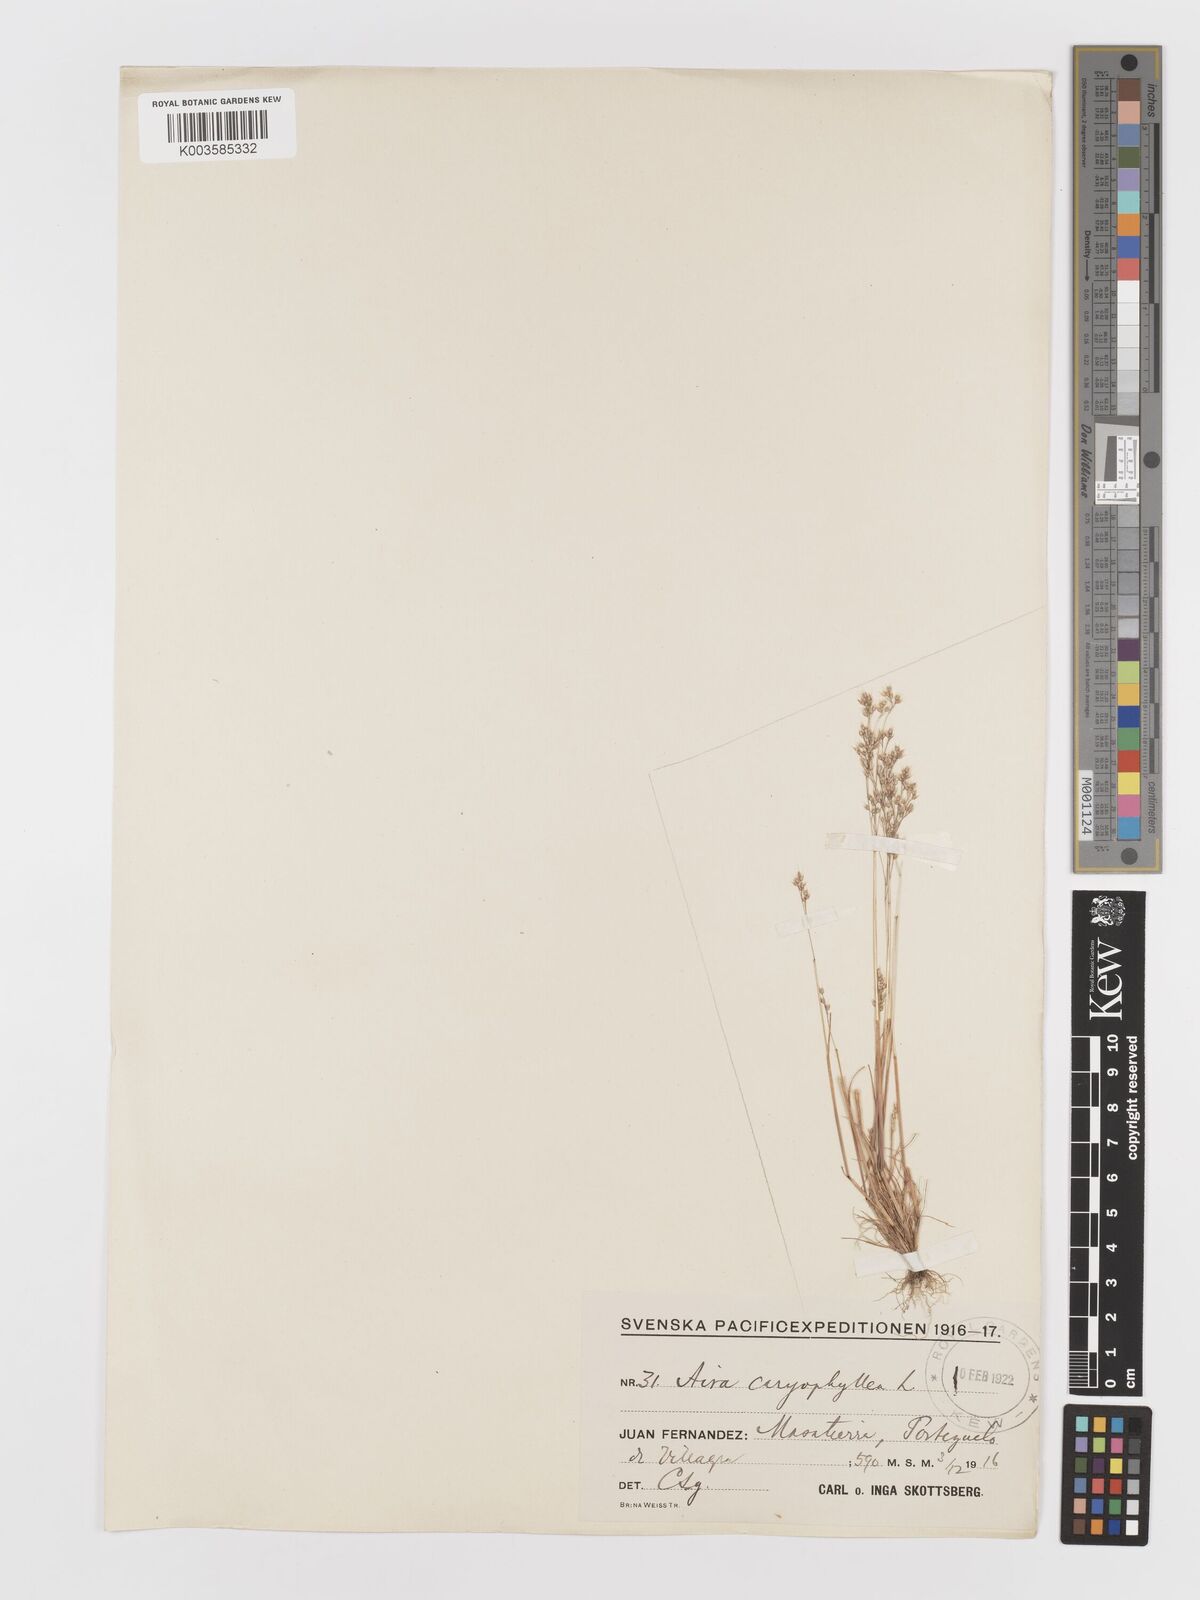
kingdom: Plantae
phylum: Tracheophyta
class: Liliopsida
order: Poales
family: Poaceae
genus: Aira
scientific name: Aira caryophyllea
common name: Silver hairgrass
